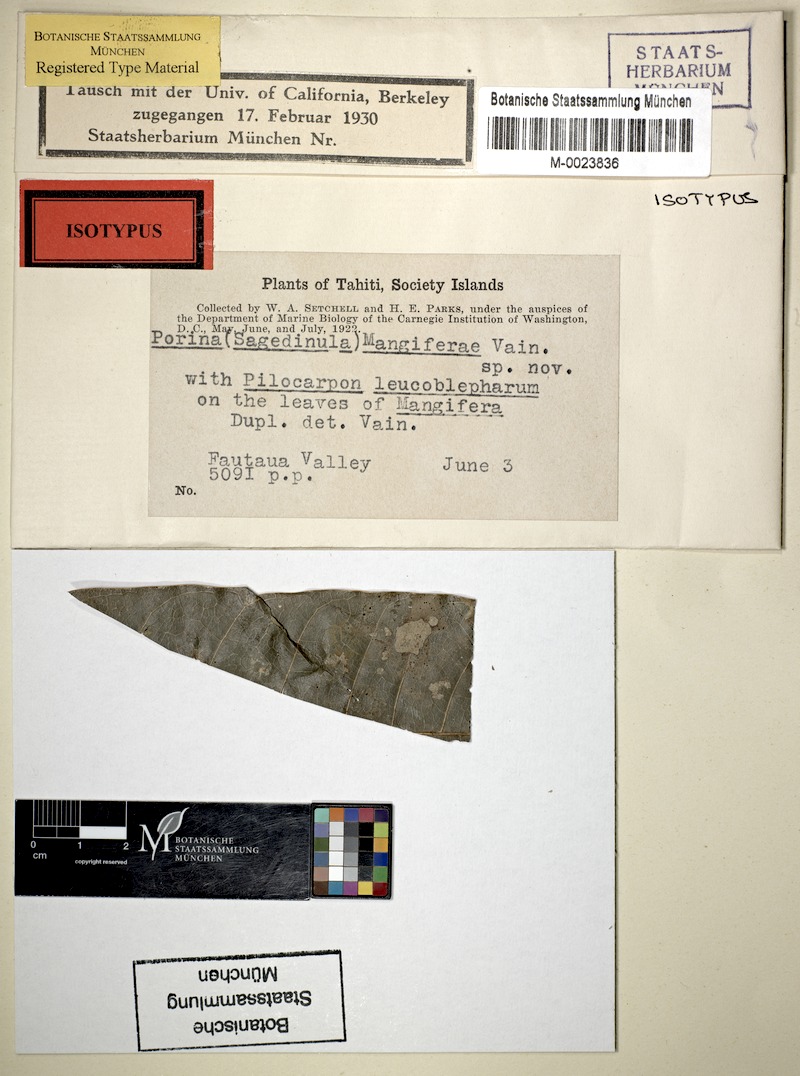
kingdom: Fungi
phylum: Ascomycota
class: Lecanoromycetes
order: Ostropales
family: Porinaceae
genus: Pseudosagedia
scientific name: Pseudosagedia corruscans
